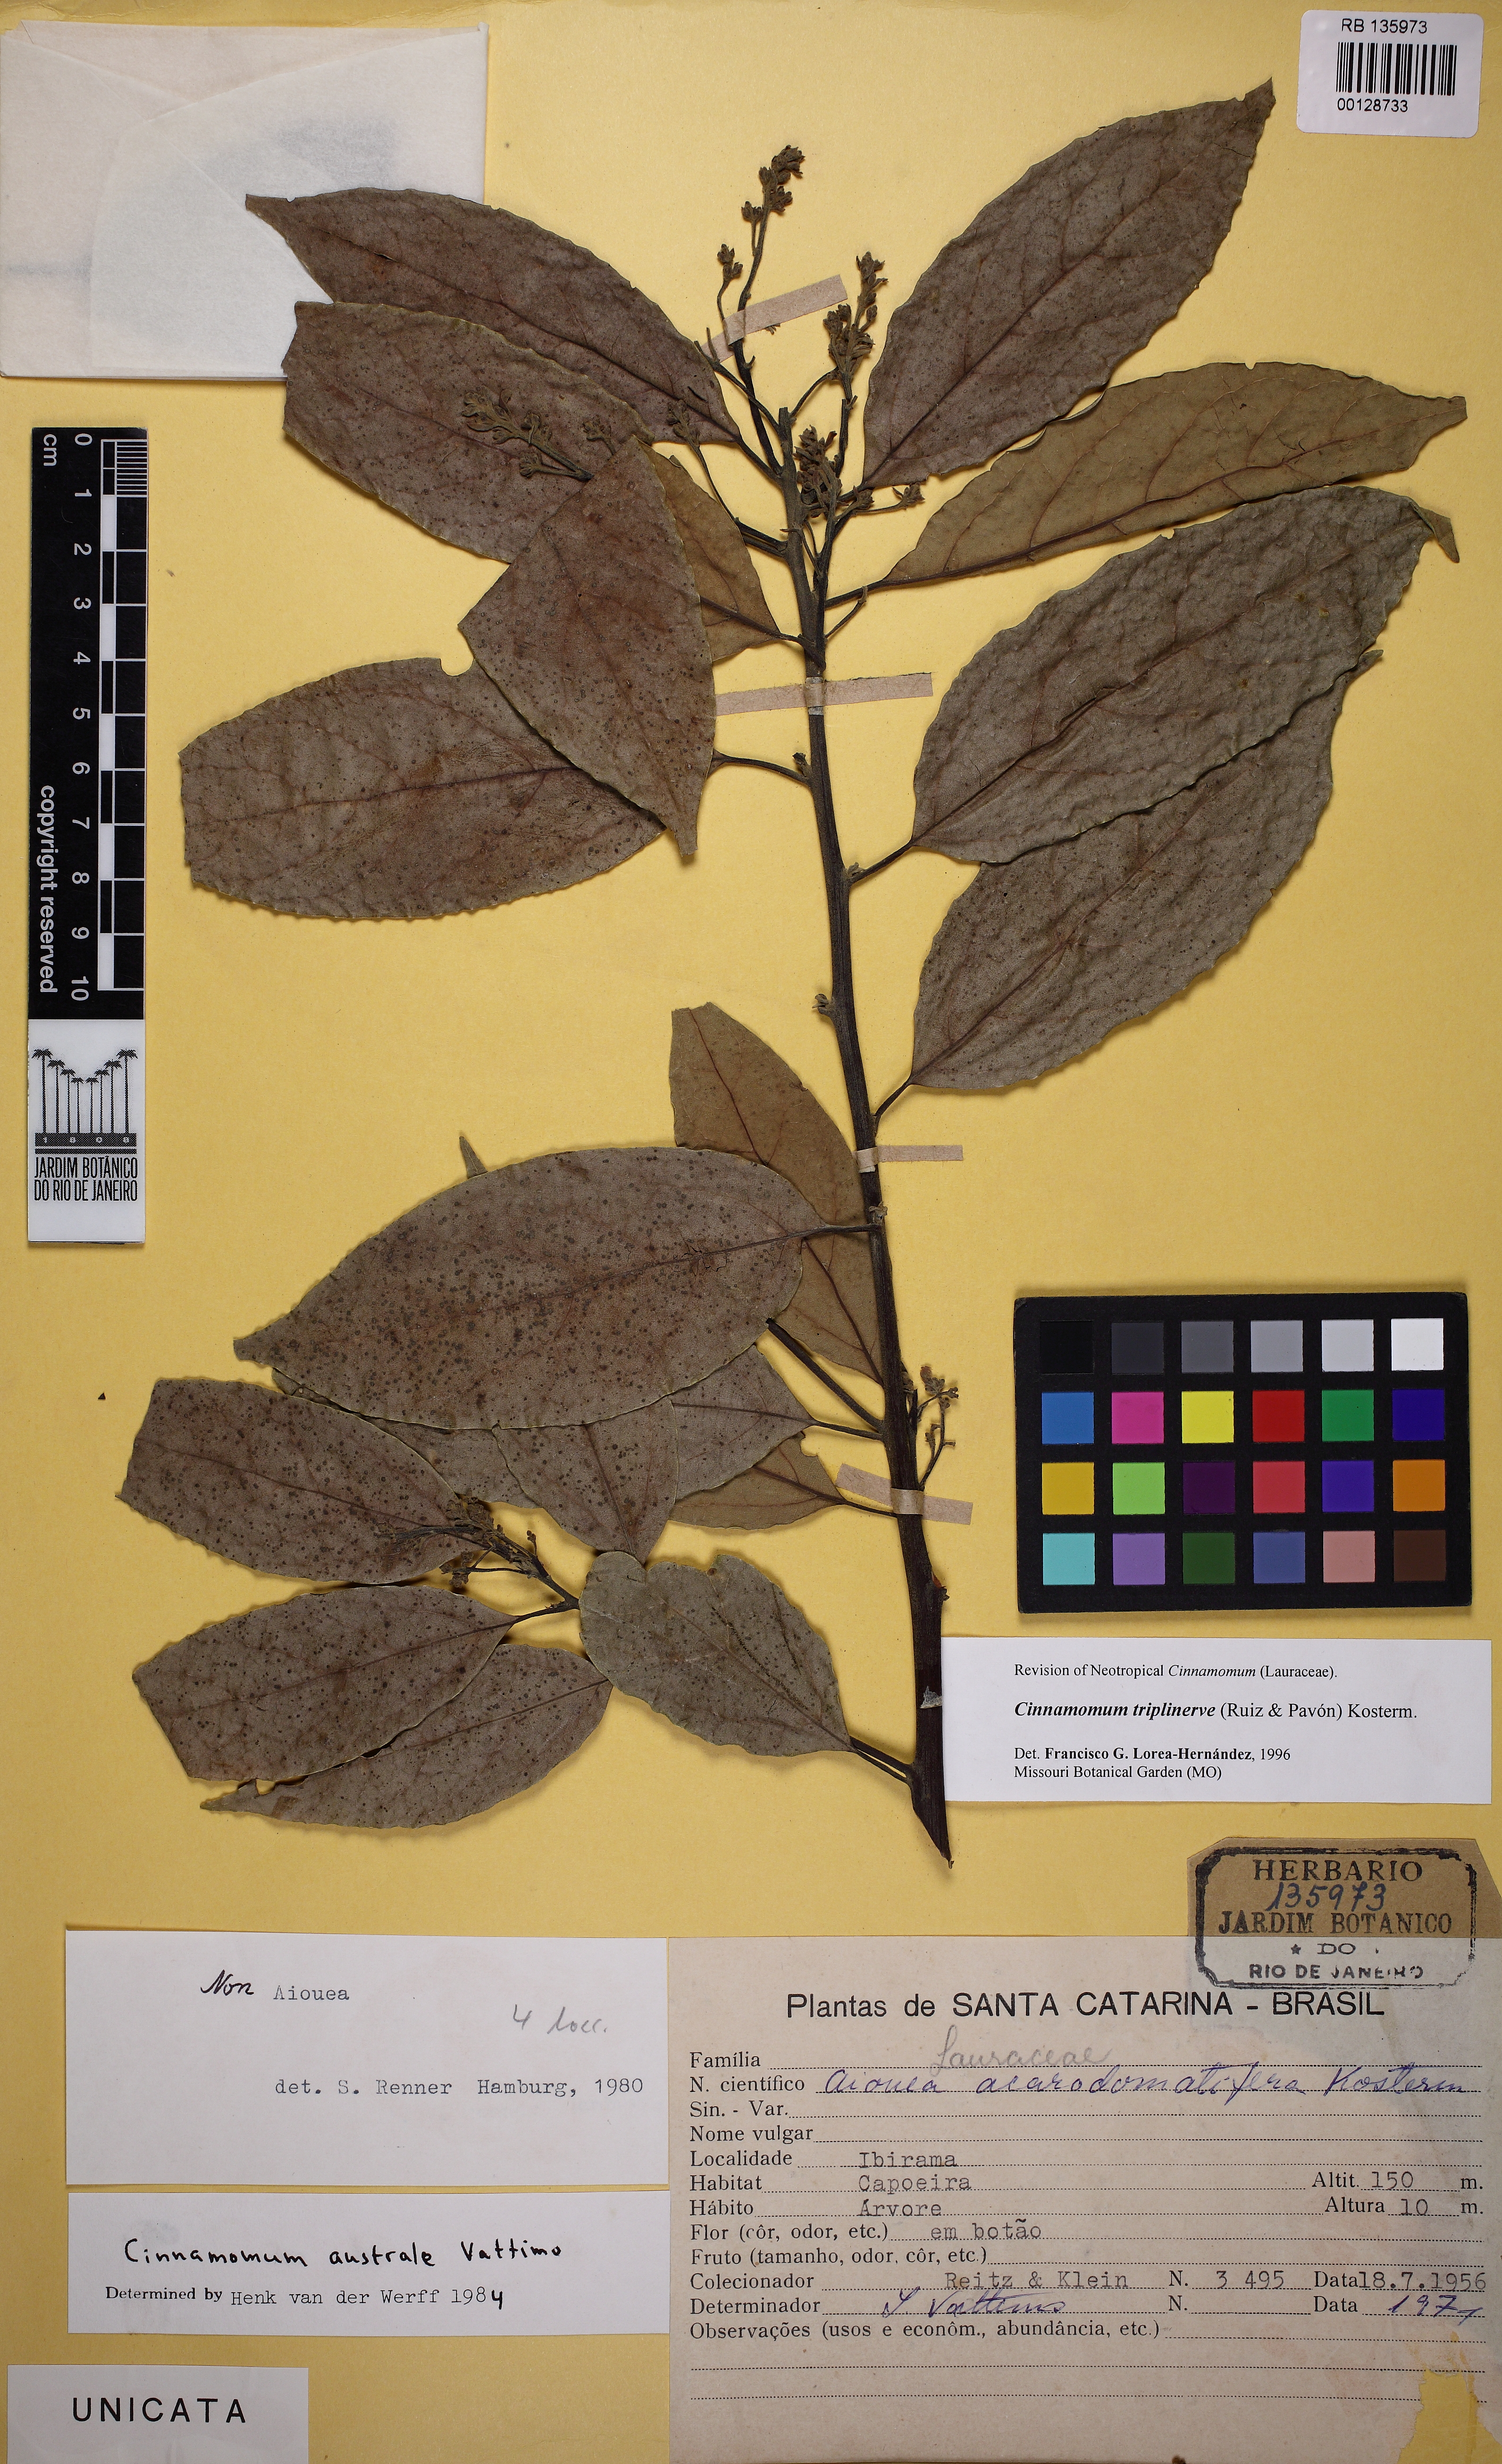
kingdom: Plantae
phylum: Tracheophyta
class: Magnoliopsida
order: Laurales
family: Lauraceae
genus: Aiouea
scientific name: Aiouea montana
